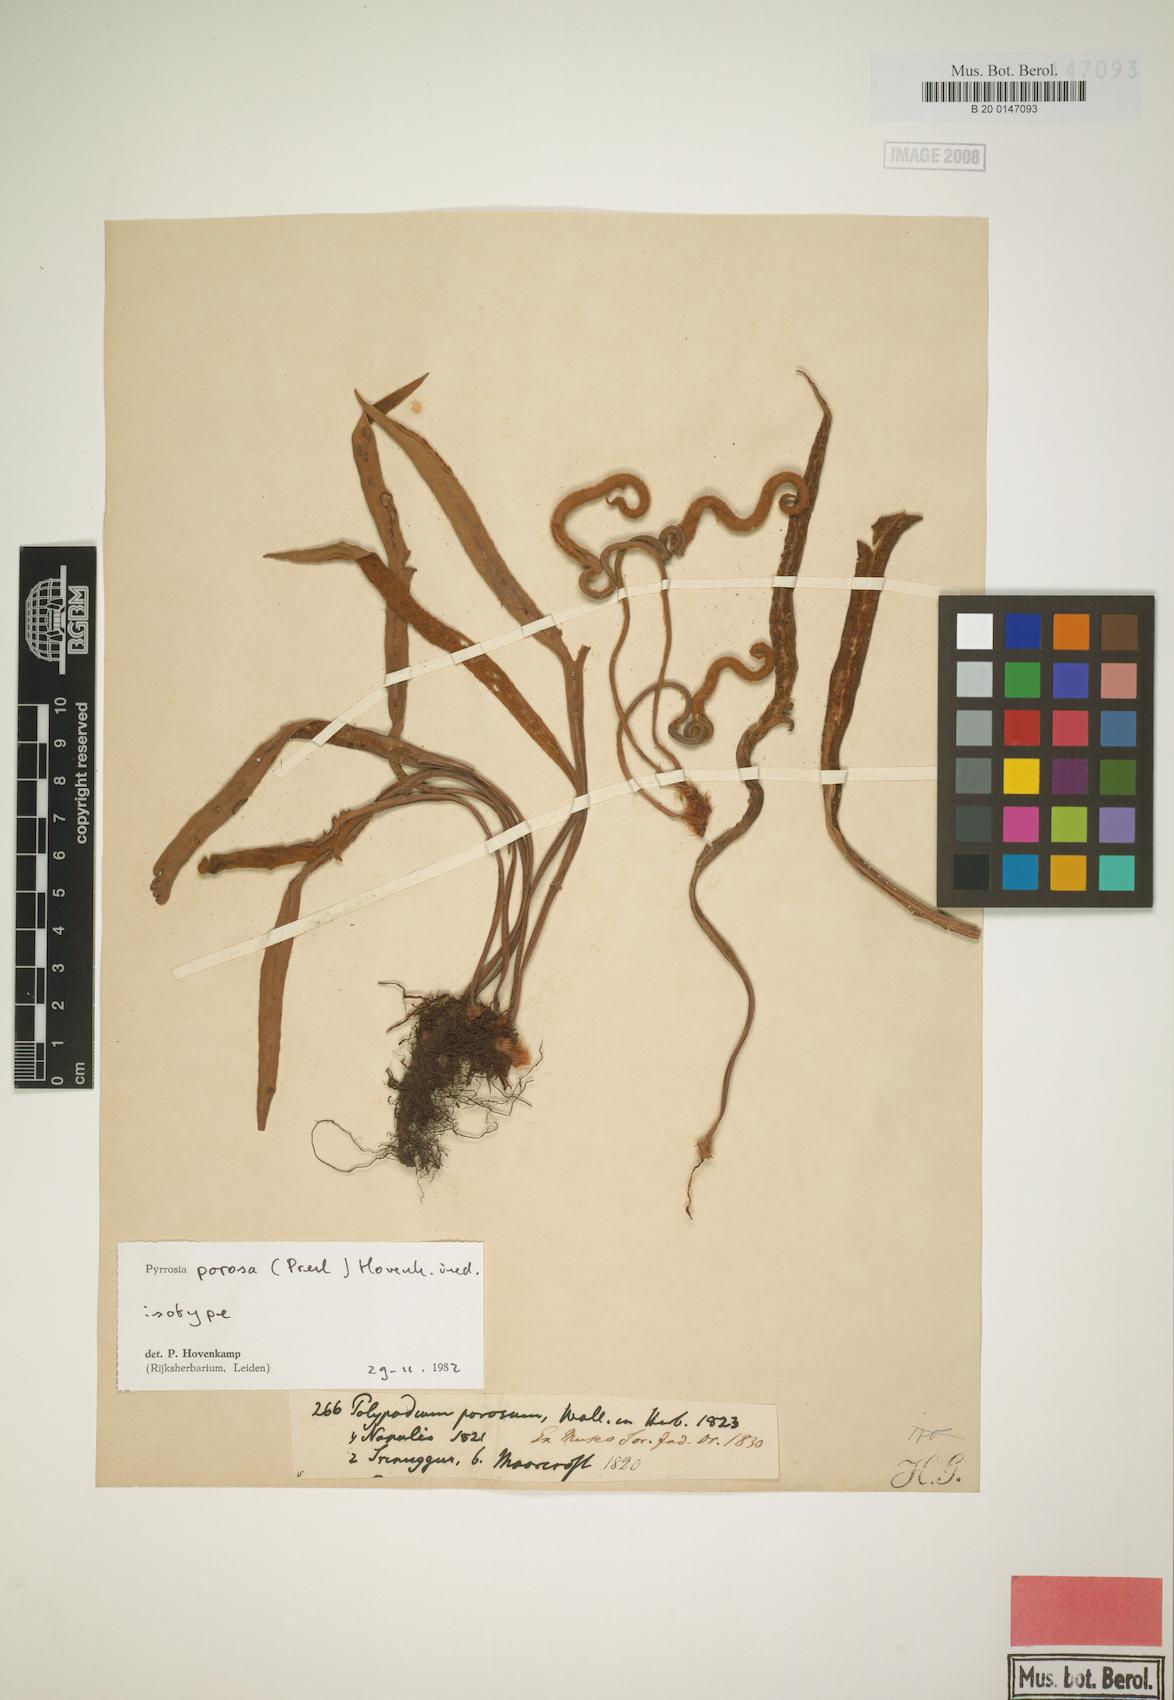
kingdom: Plantae
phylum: Tracheophyta
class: Polypodiopsida
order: Polypodiales
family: Polypodiaceae
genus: Pyrrosia
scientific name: Pyrrosia porosa
